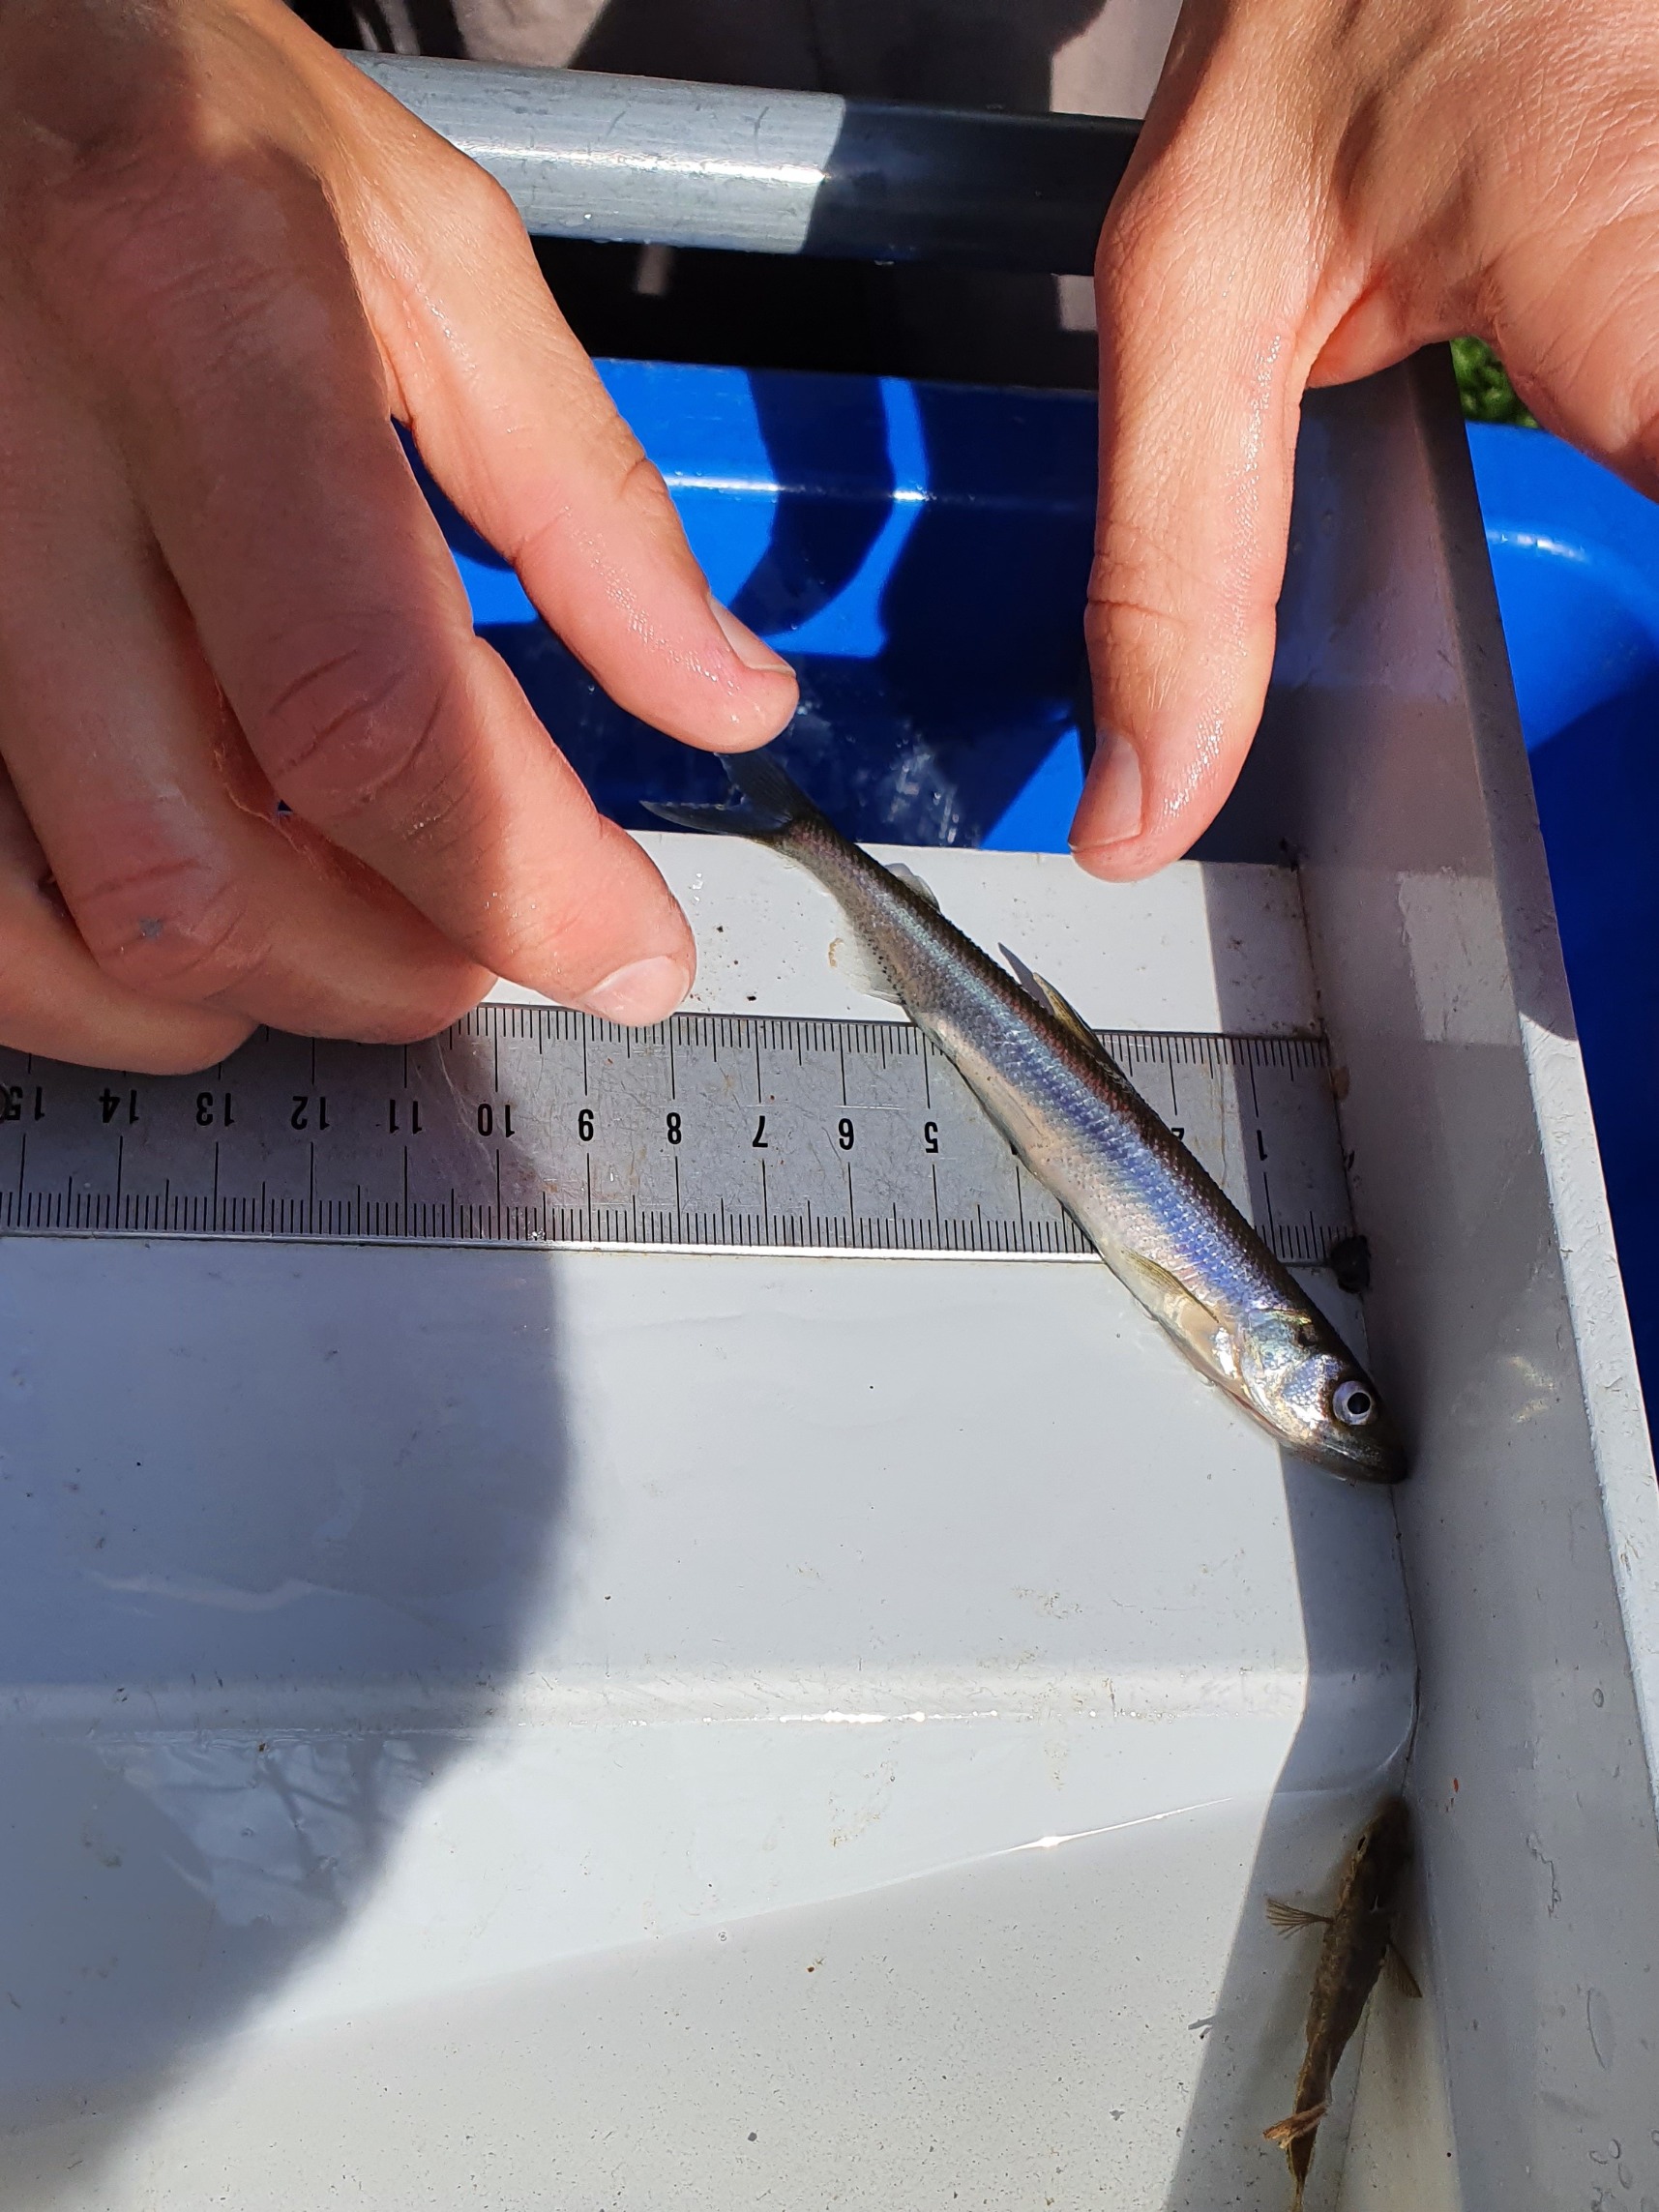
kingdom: Animalia
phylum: Chordata
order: Osmeriformes
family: Osmeridae
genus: Osmerus
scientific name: Osmerus eperlanus
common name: Smelt
